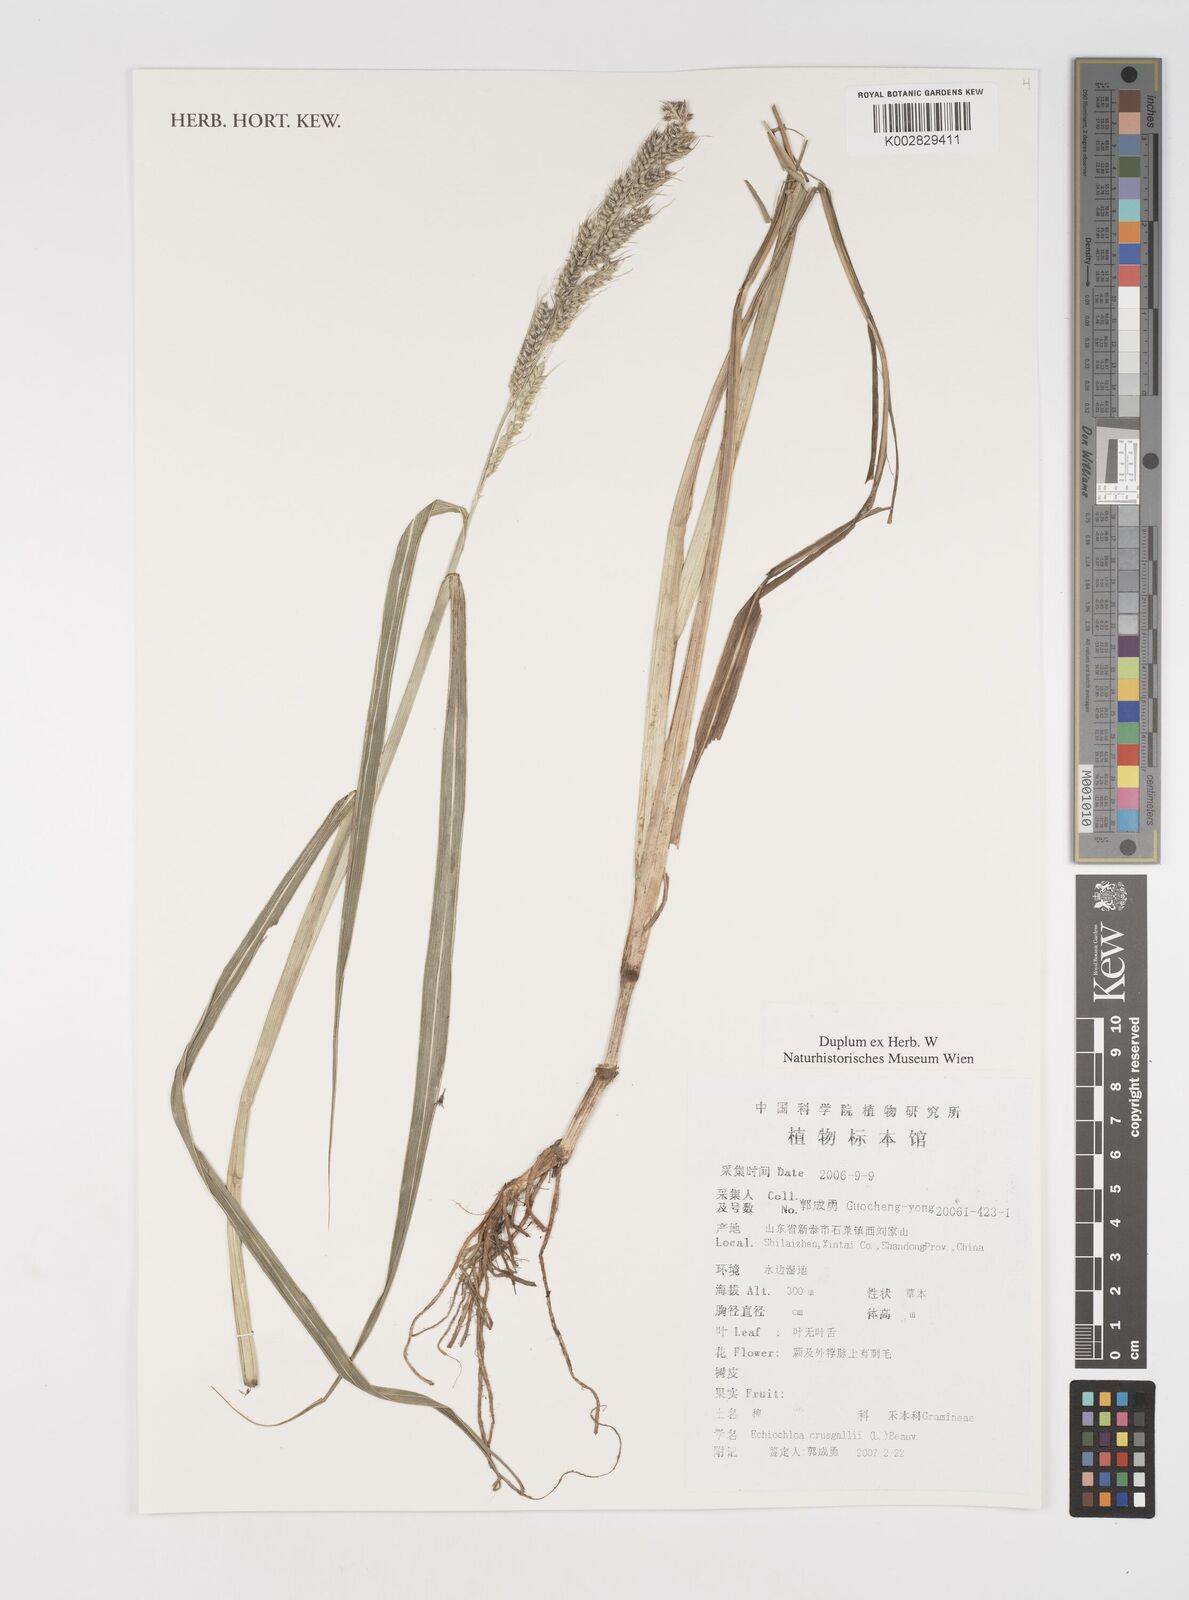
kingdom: Plantae
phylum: Tracheophyta
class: Liliopsida
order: Poales
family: Poaceae
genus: Echinochloa
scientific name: Echinochloa crus-galli
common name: Cockspur
